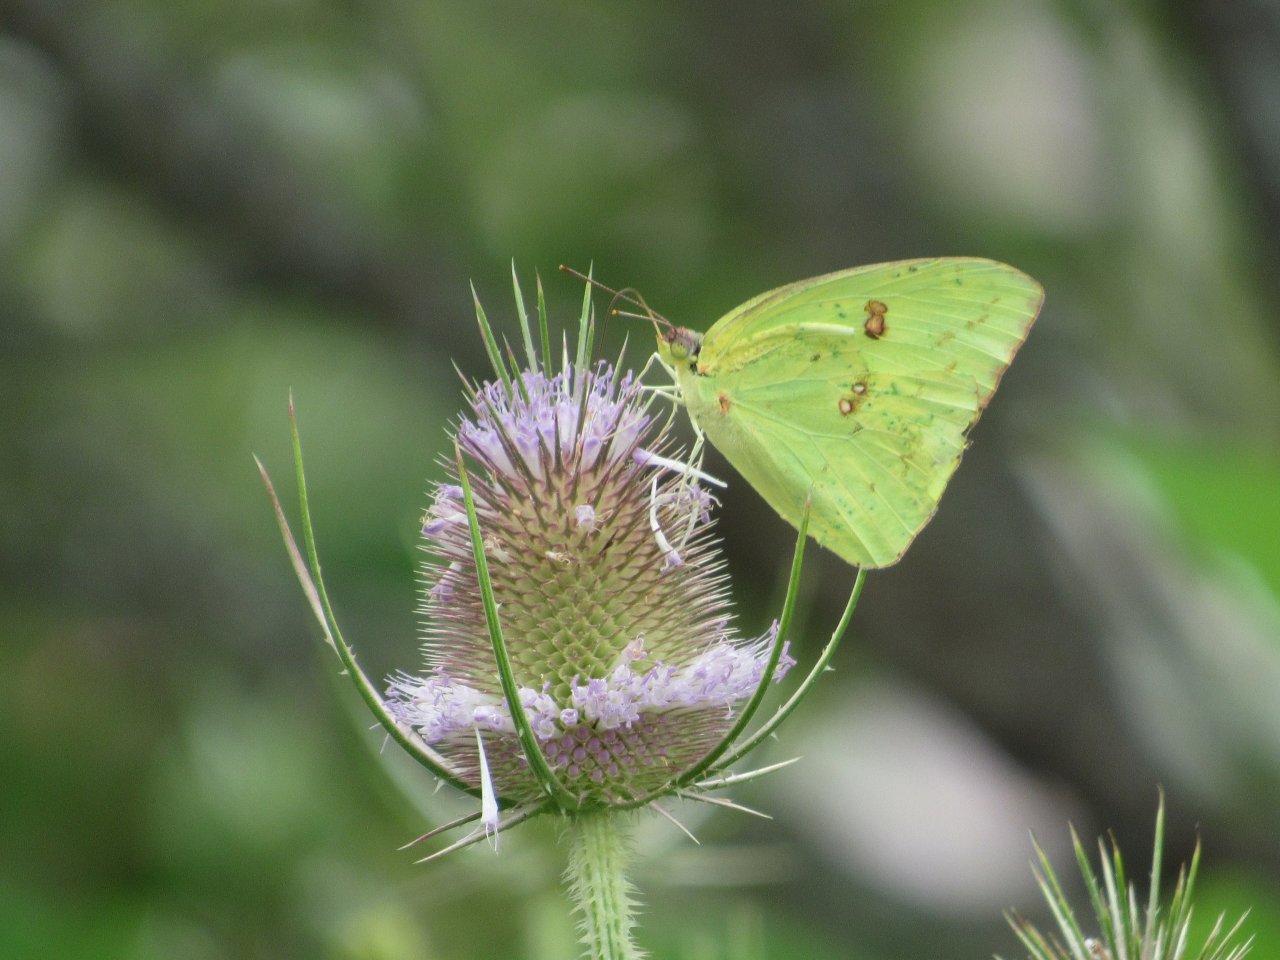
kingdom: Animalia
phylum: Arthropoda
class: Insecta
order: Lepidoptera
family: Pieridae
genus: Phoebis
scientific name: Phoebis sennae
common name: Cloudless Sulphur
